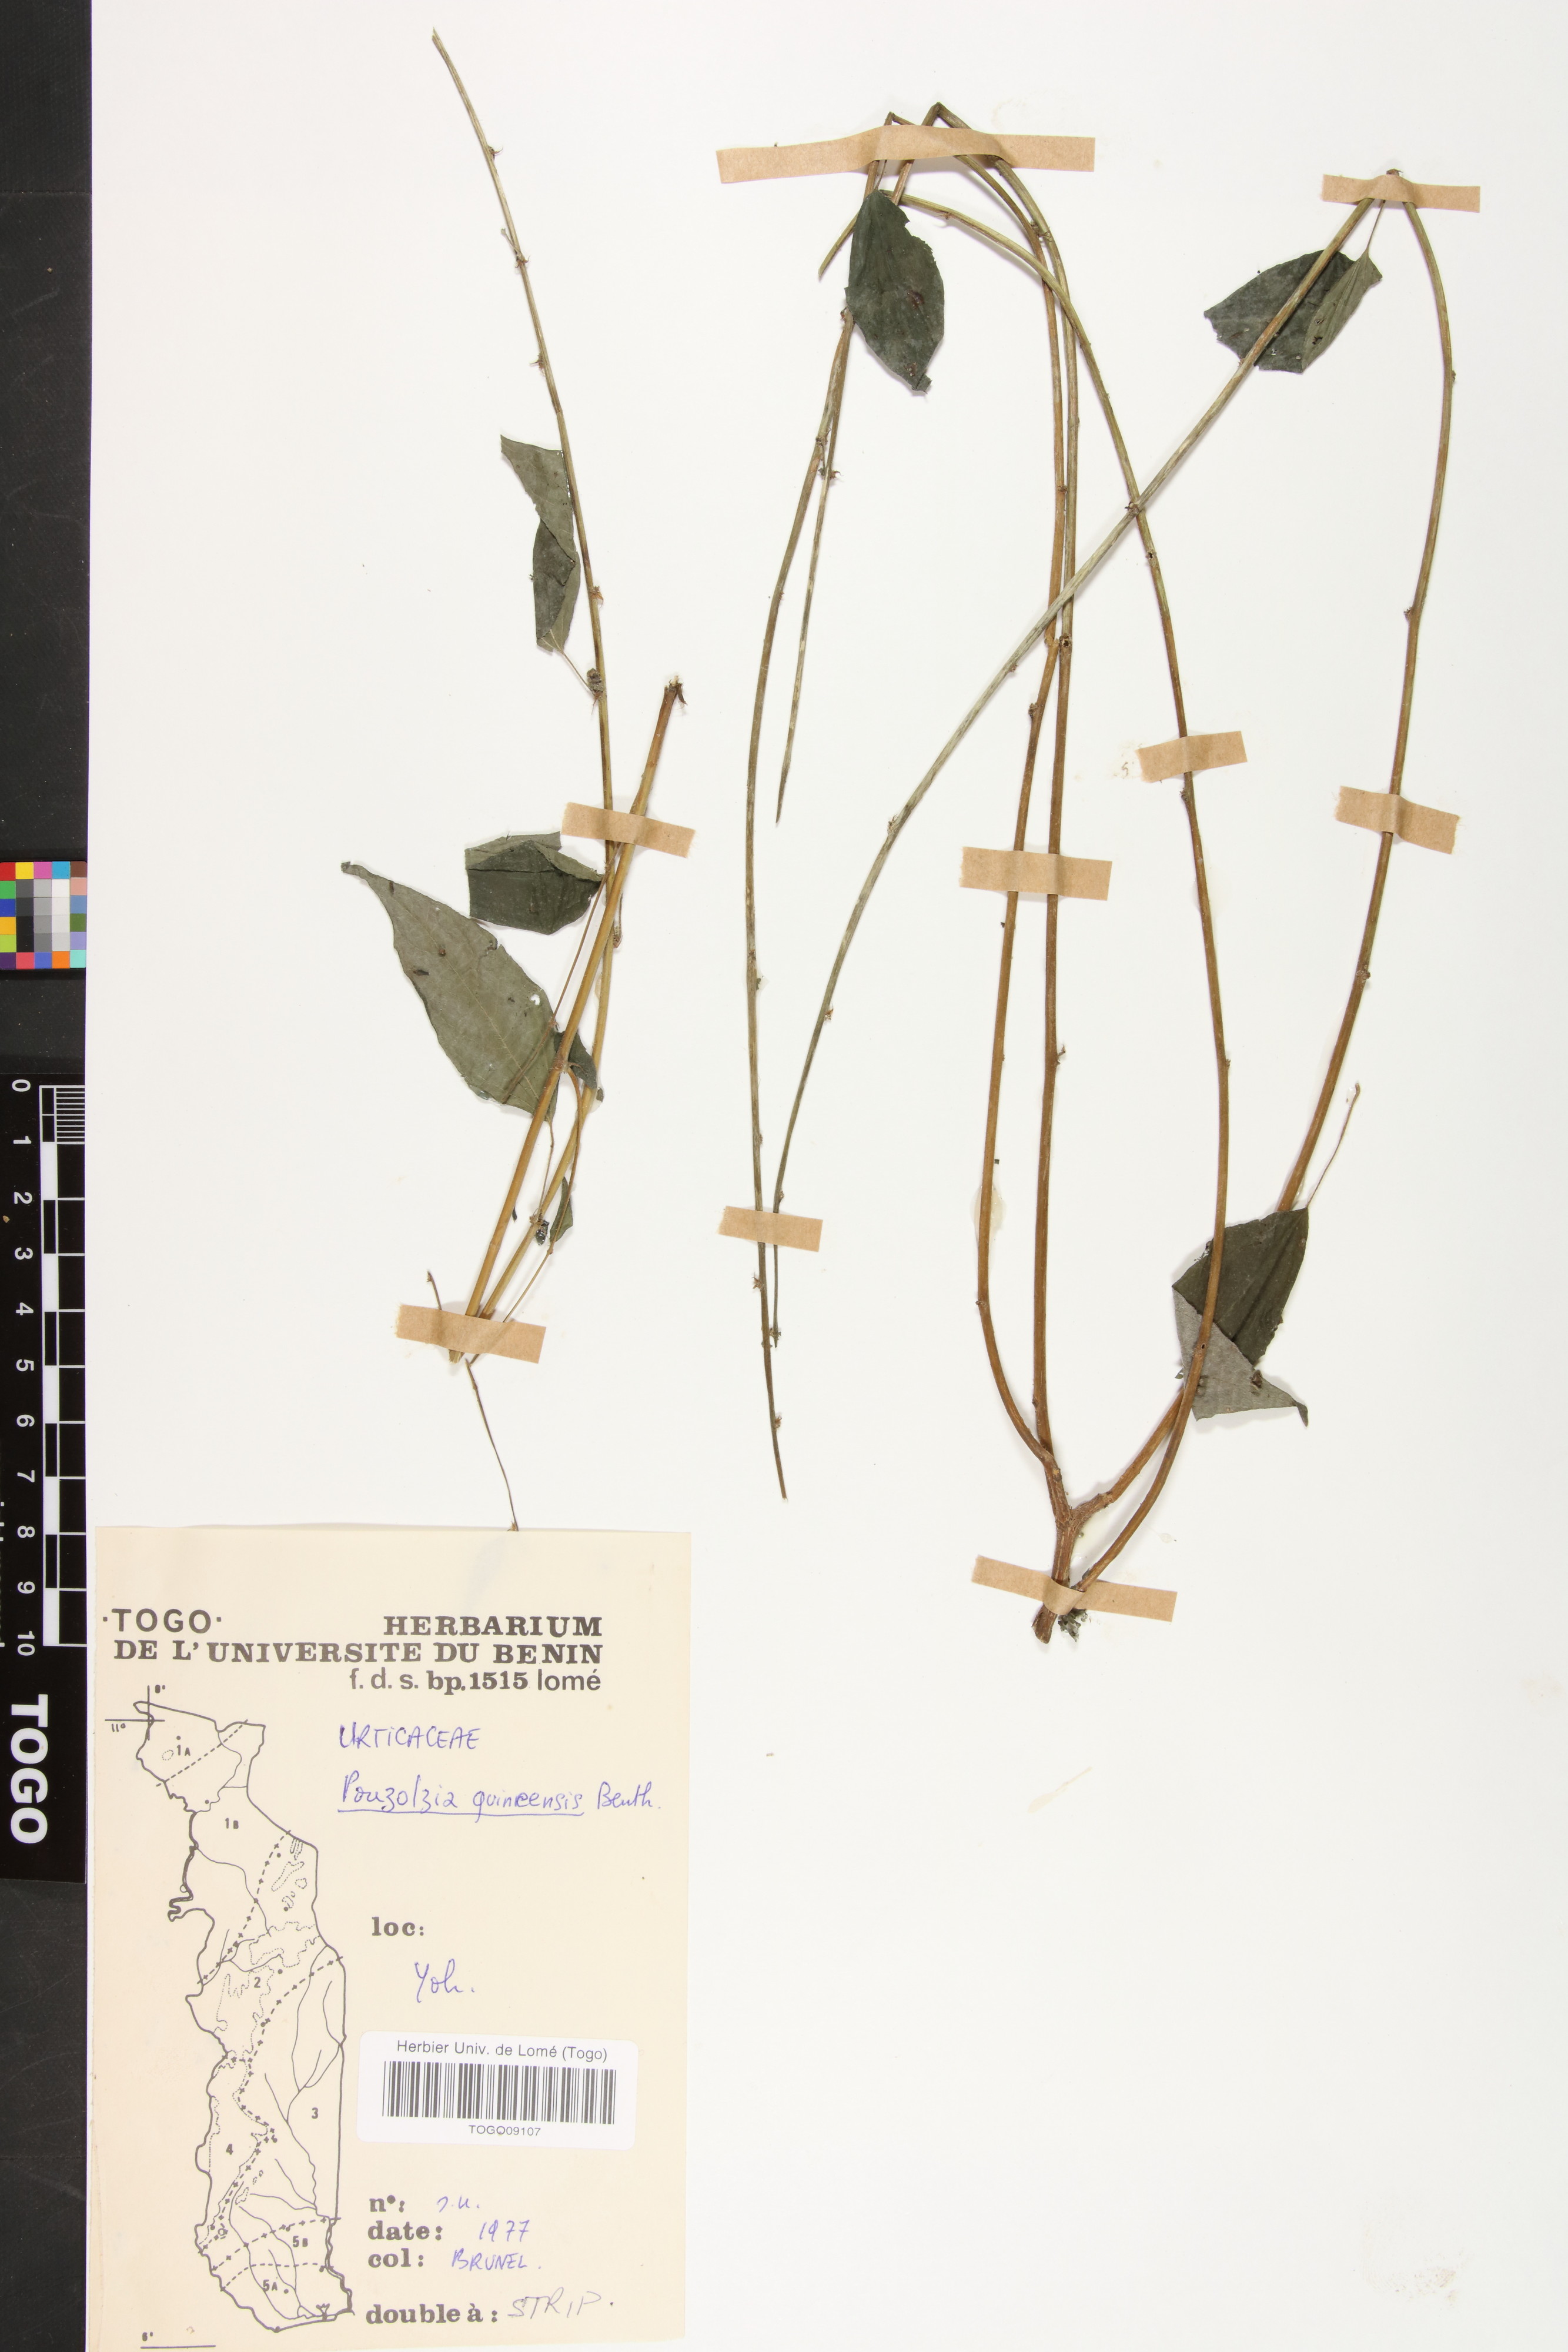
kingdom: Plantae
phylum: Tracheophyta
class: Magnoliopsida
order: Rosales
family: Urticaceae
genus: Pouzolzia
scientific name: Pouzolzia guineensis
